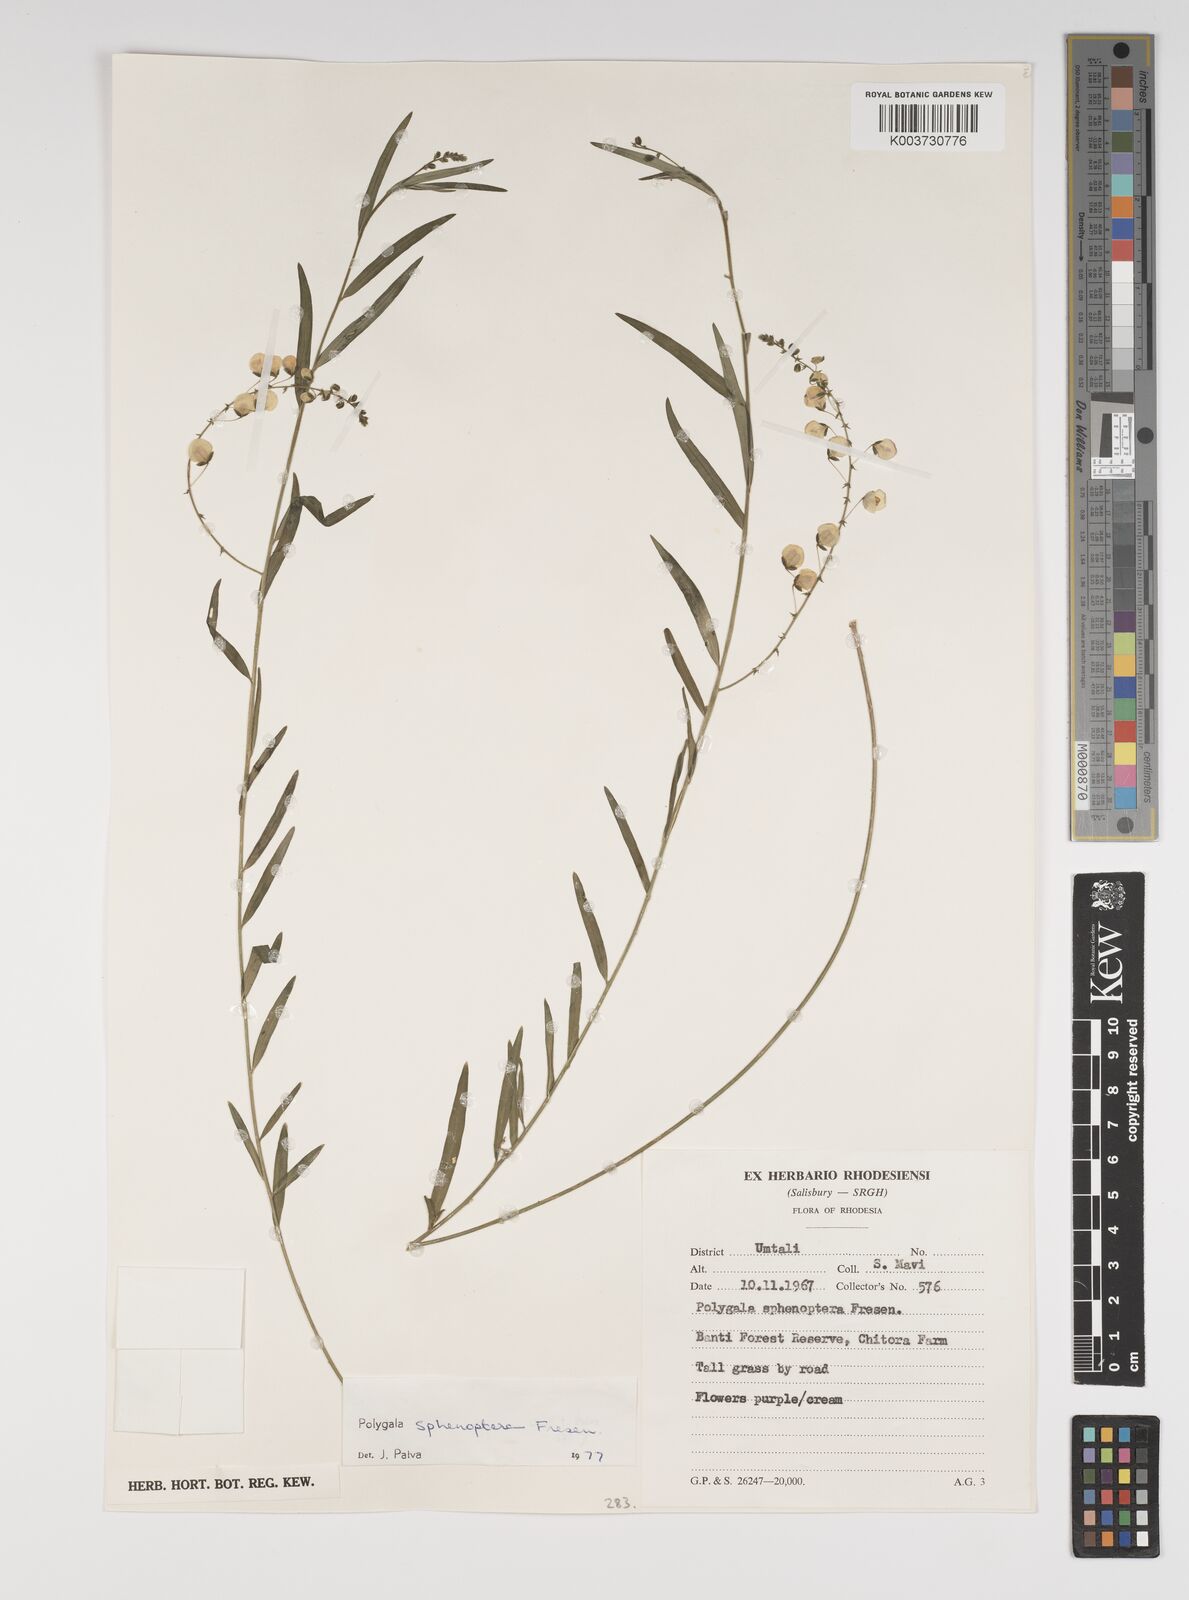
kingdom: Plantae
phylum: Tracheophyta
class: Magnoliopsida
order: Fabales
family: Polygalaceae
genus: Polygala
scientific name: Polygala sphenoptera
